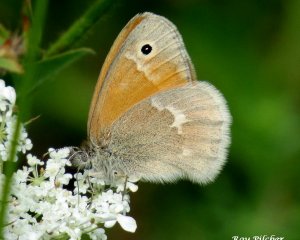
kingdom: Animalia
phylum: Arthropoda
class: Insecta
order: Lepidoptera
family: Nymphalidae
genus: Coenonympha
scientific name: Coenonympha tullia
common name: Large Heath
